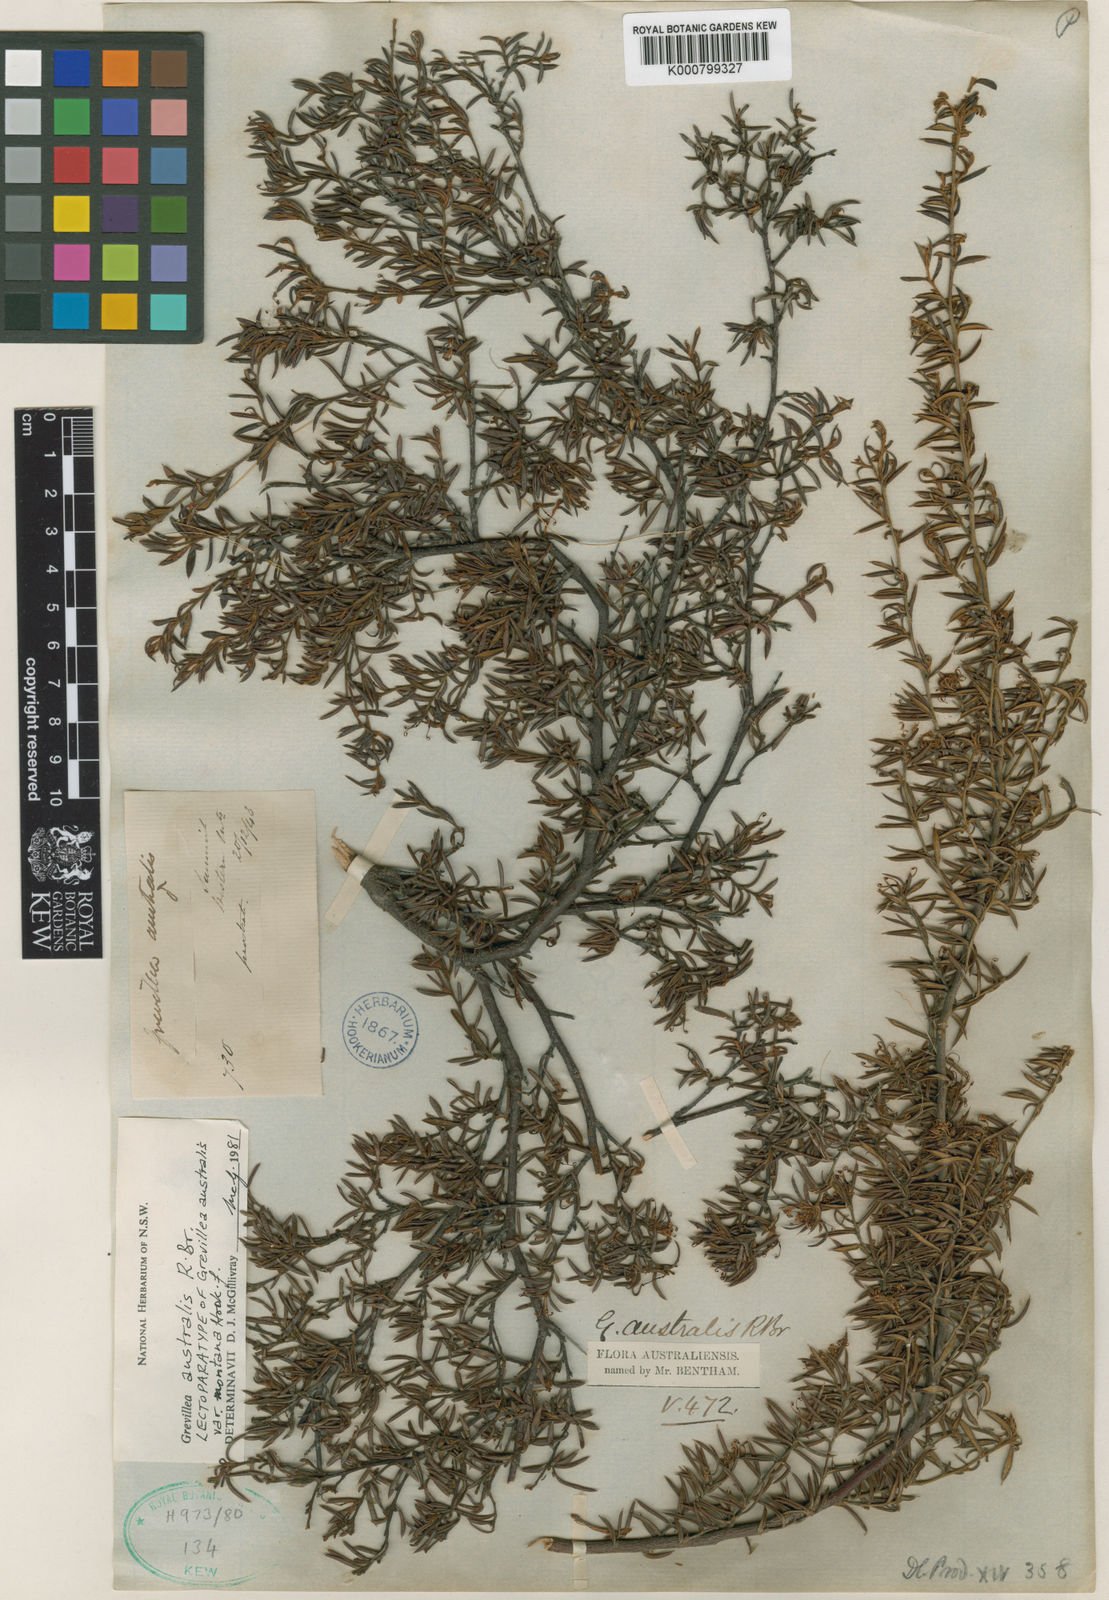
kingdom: Plantae
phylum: Tracheophyta
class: Magnoliopsida
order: Proteales
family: Proteaceae
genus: Grevillea
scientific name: Grevillea australis
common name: Alpine grevillea
